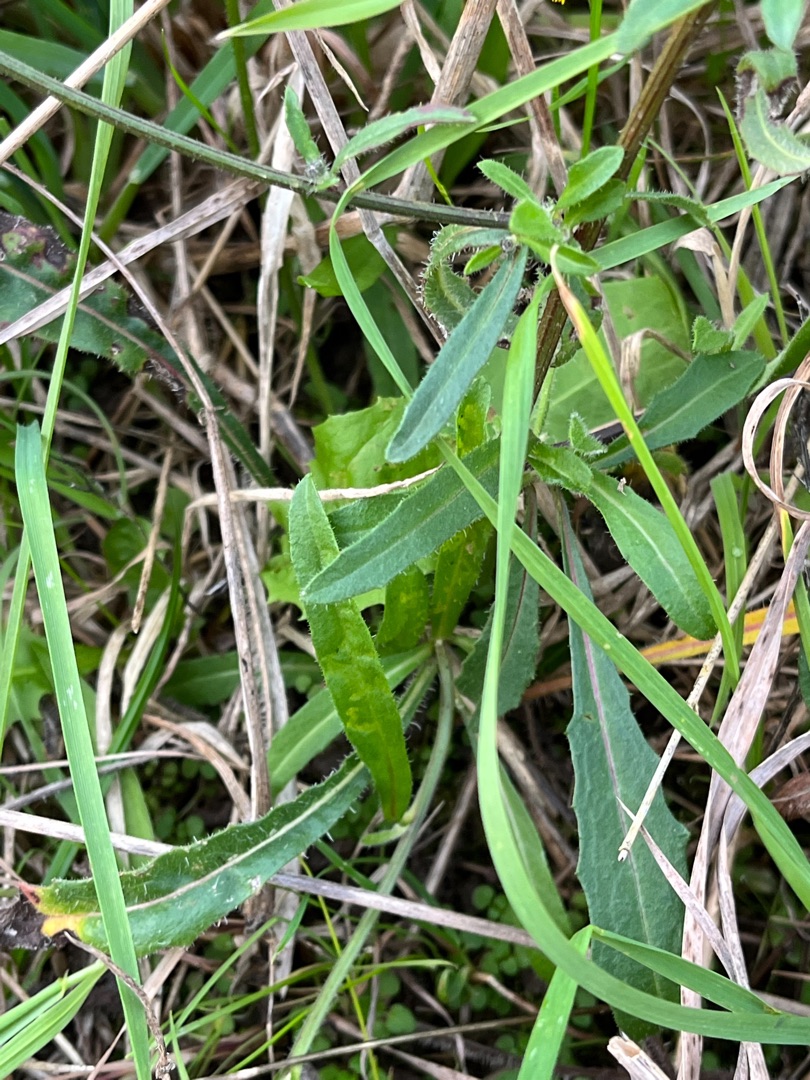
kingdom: Plantae
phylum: Tracheophyta
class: Magnoliopsida
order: Asterales
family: Asteraceae
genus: Picris
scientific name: Picris hieracioides
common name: Ru bittermælk
